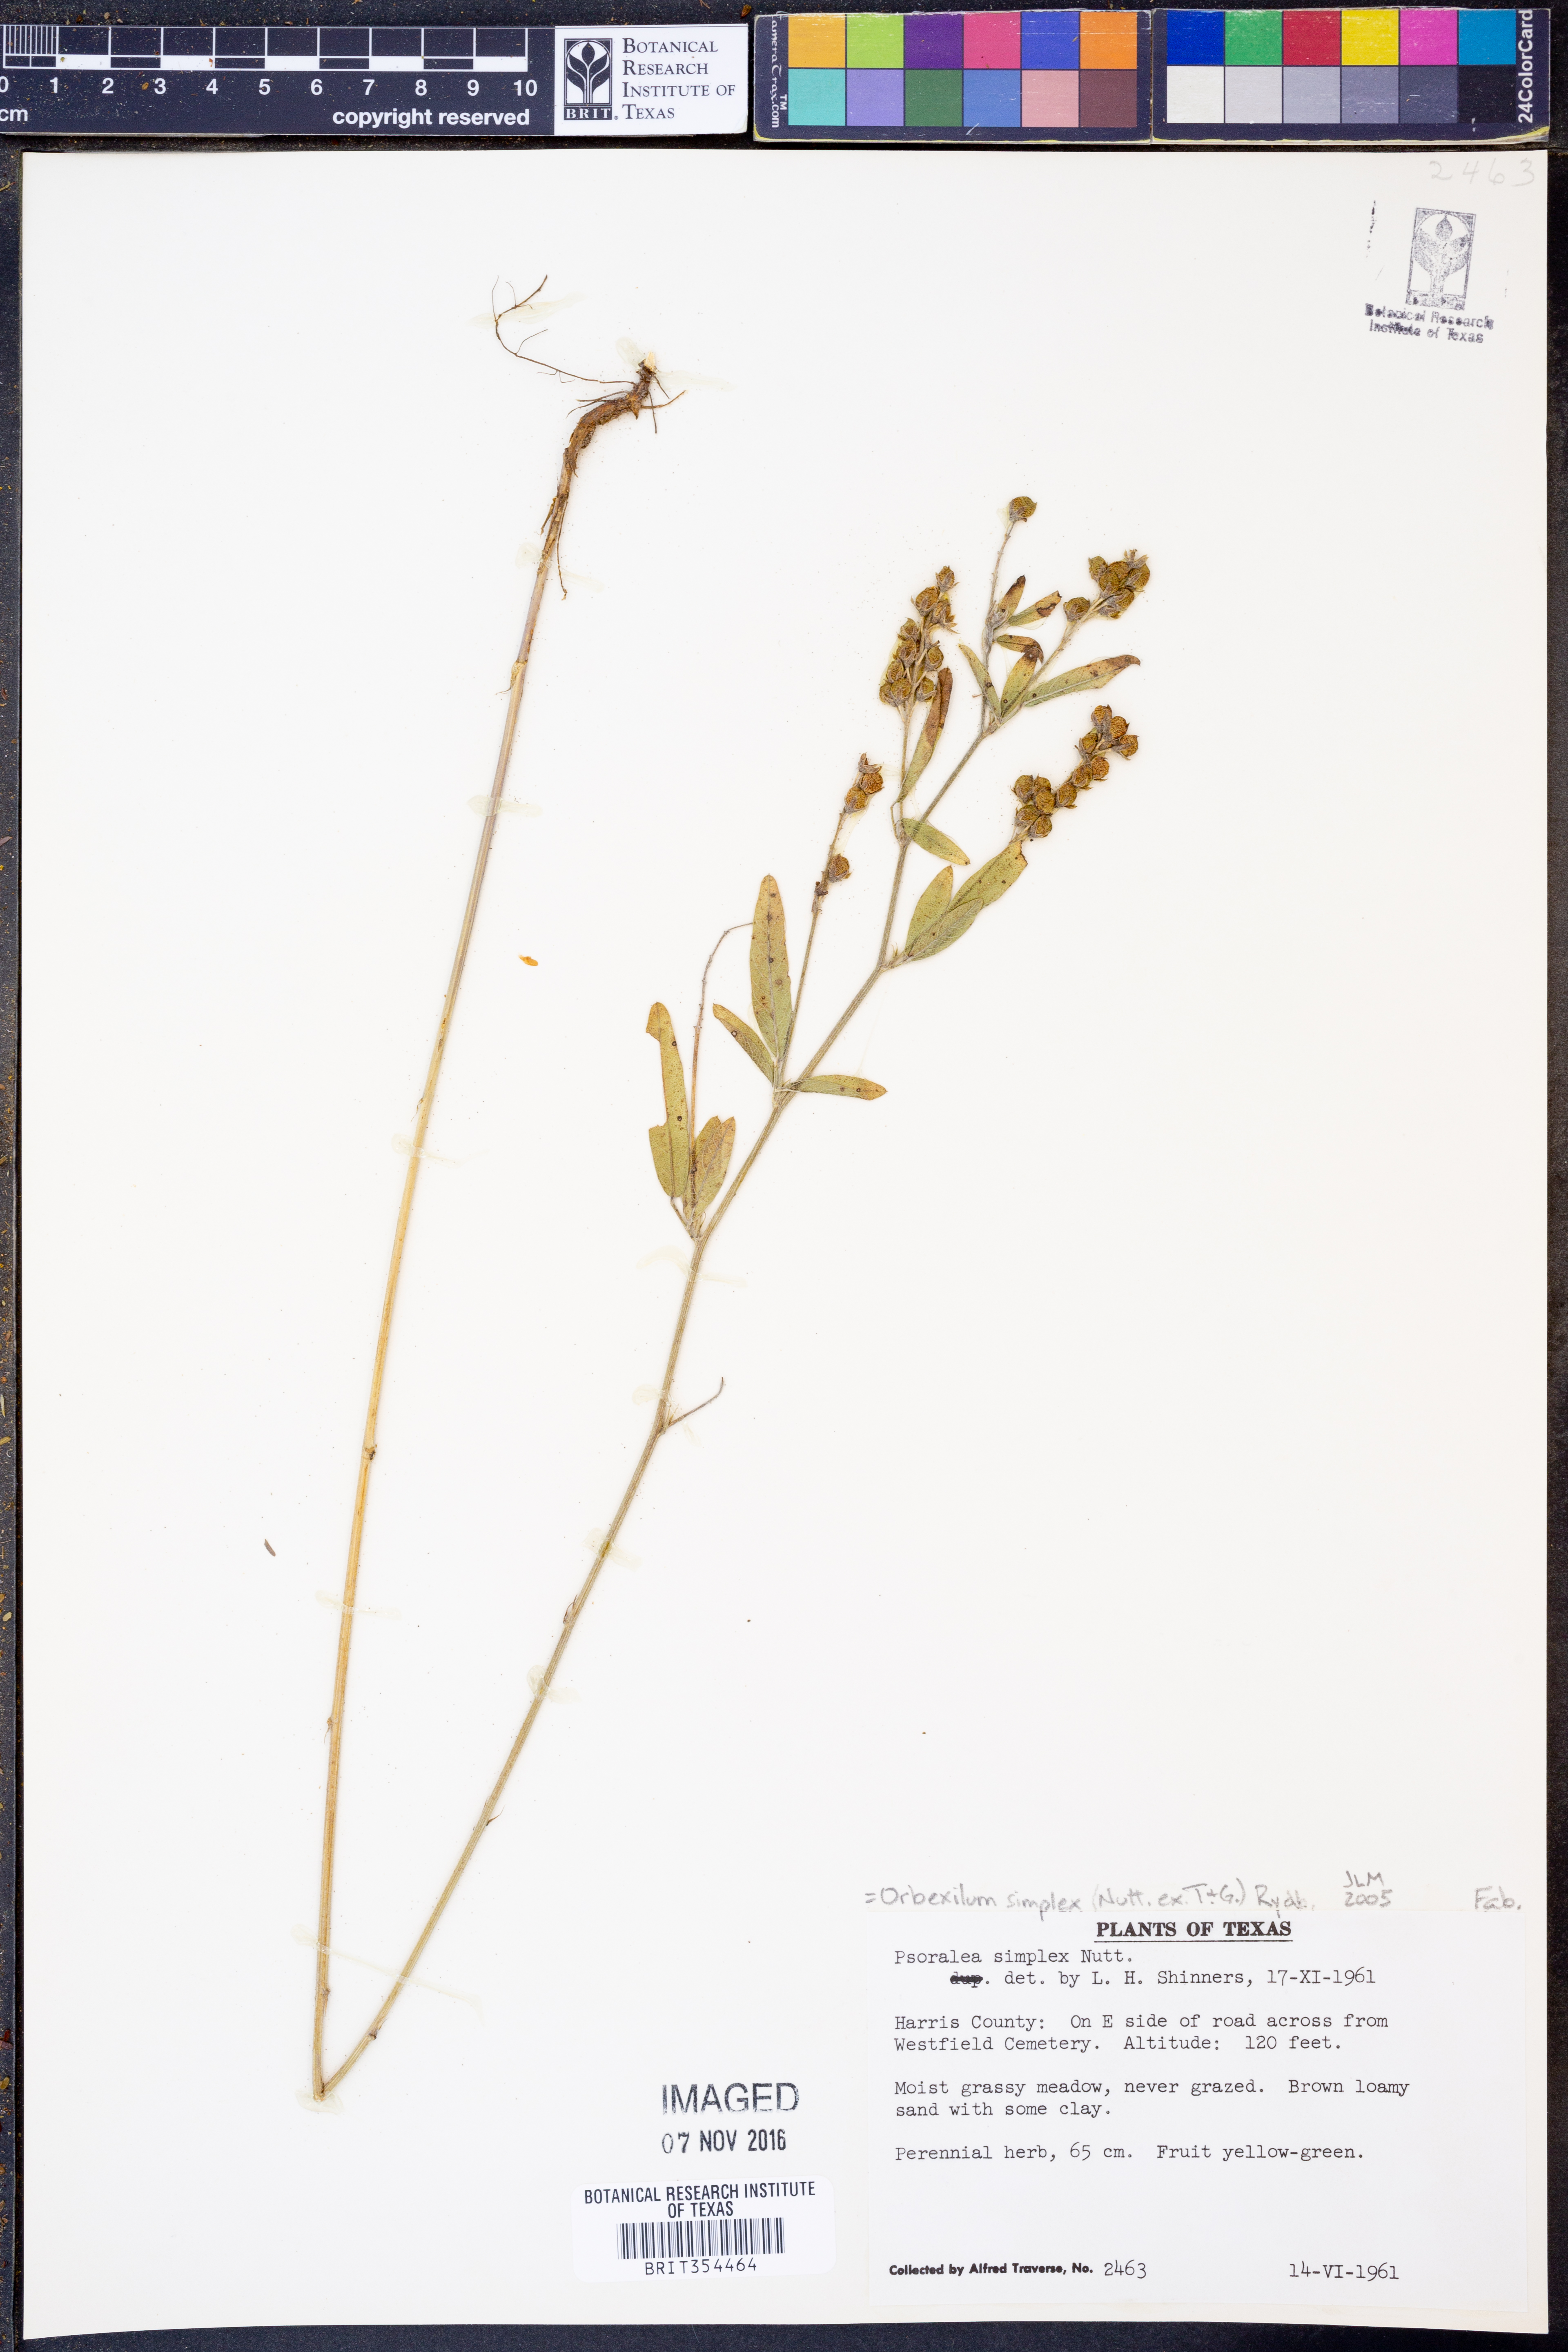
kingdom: Plantae
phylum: Tracheophyta
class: Magnoliopsida
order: Fabales
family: Fabaceae
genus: Orbexilum
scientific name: Orbexilum simplex
